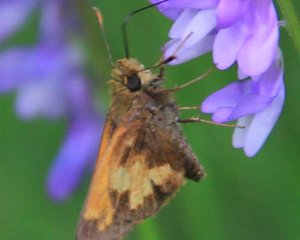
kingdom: Animalia
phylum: Arthropoda
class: Insecta
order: Lepidoptera
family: Hesperiidae
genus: Lon
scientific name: Lon hobomok
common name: Hobomok Skipper
